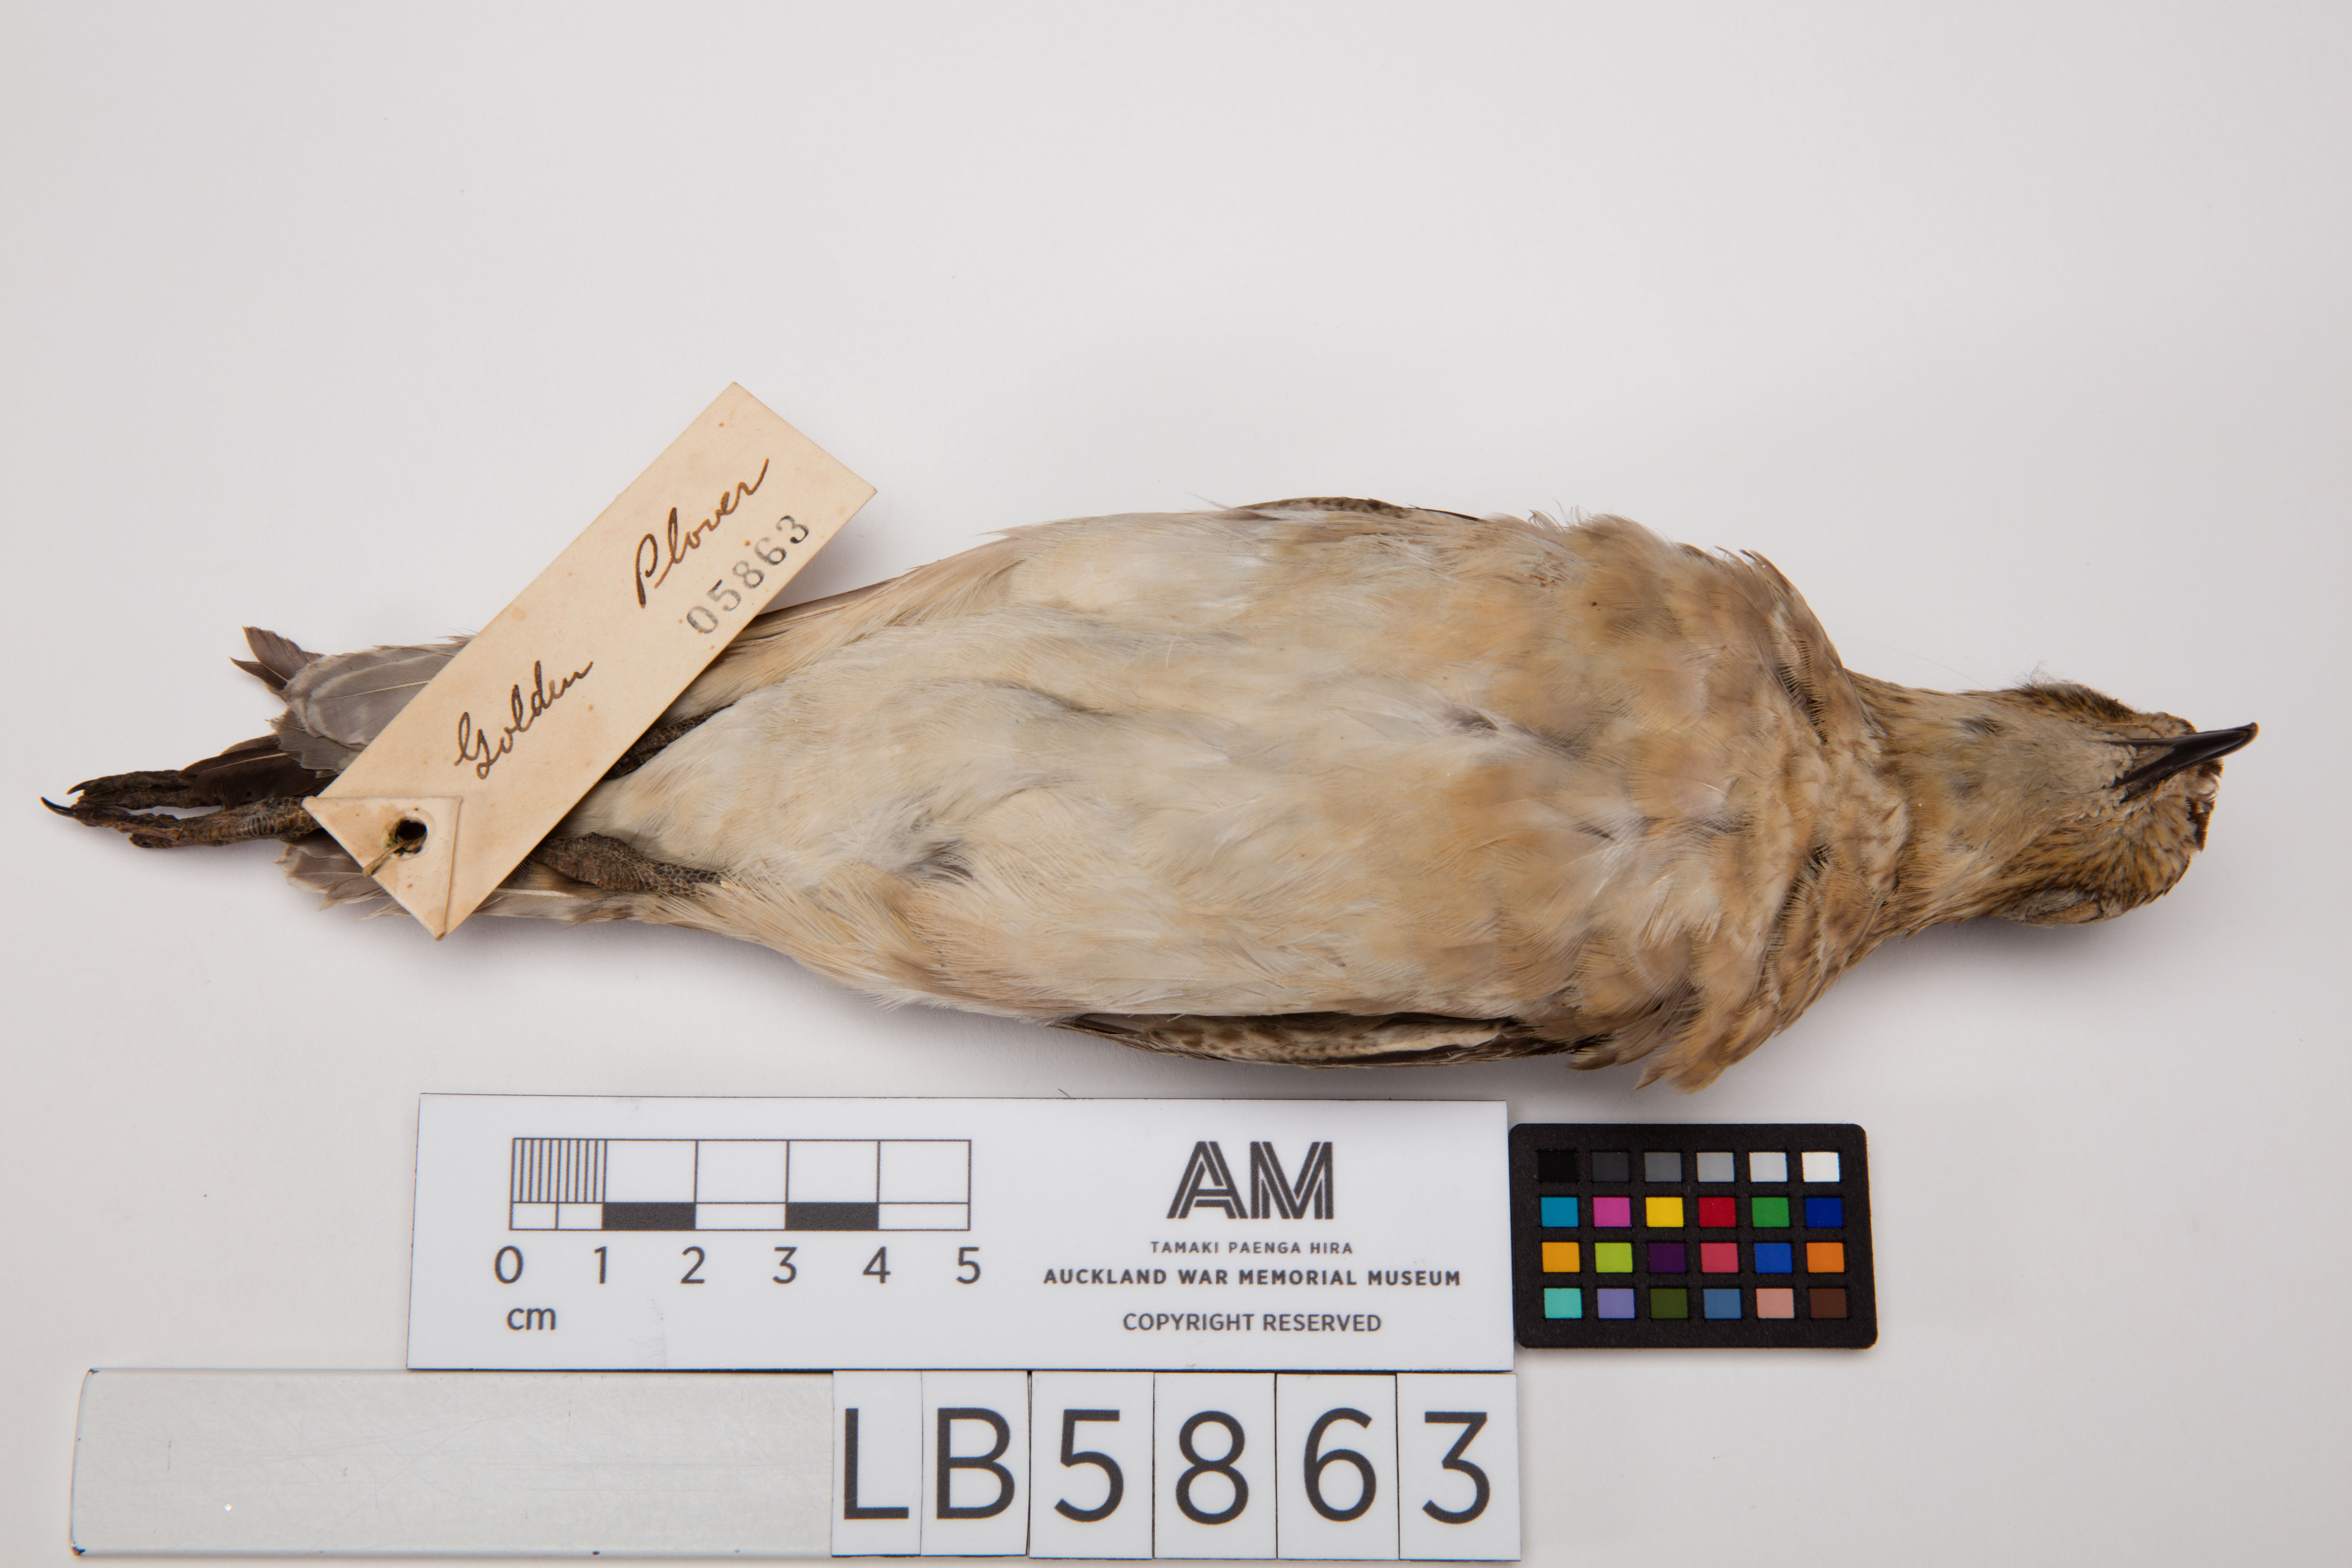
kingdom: Animalia
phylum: Chordata
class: Aves
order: Charadriiformes
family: Charadriidae
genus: Pluvialis
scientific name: Pluvialis fulva
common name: Pacific golden plover
